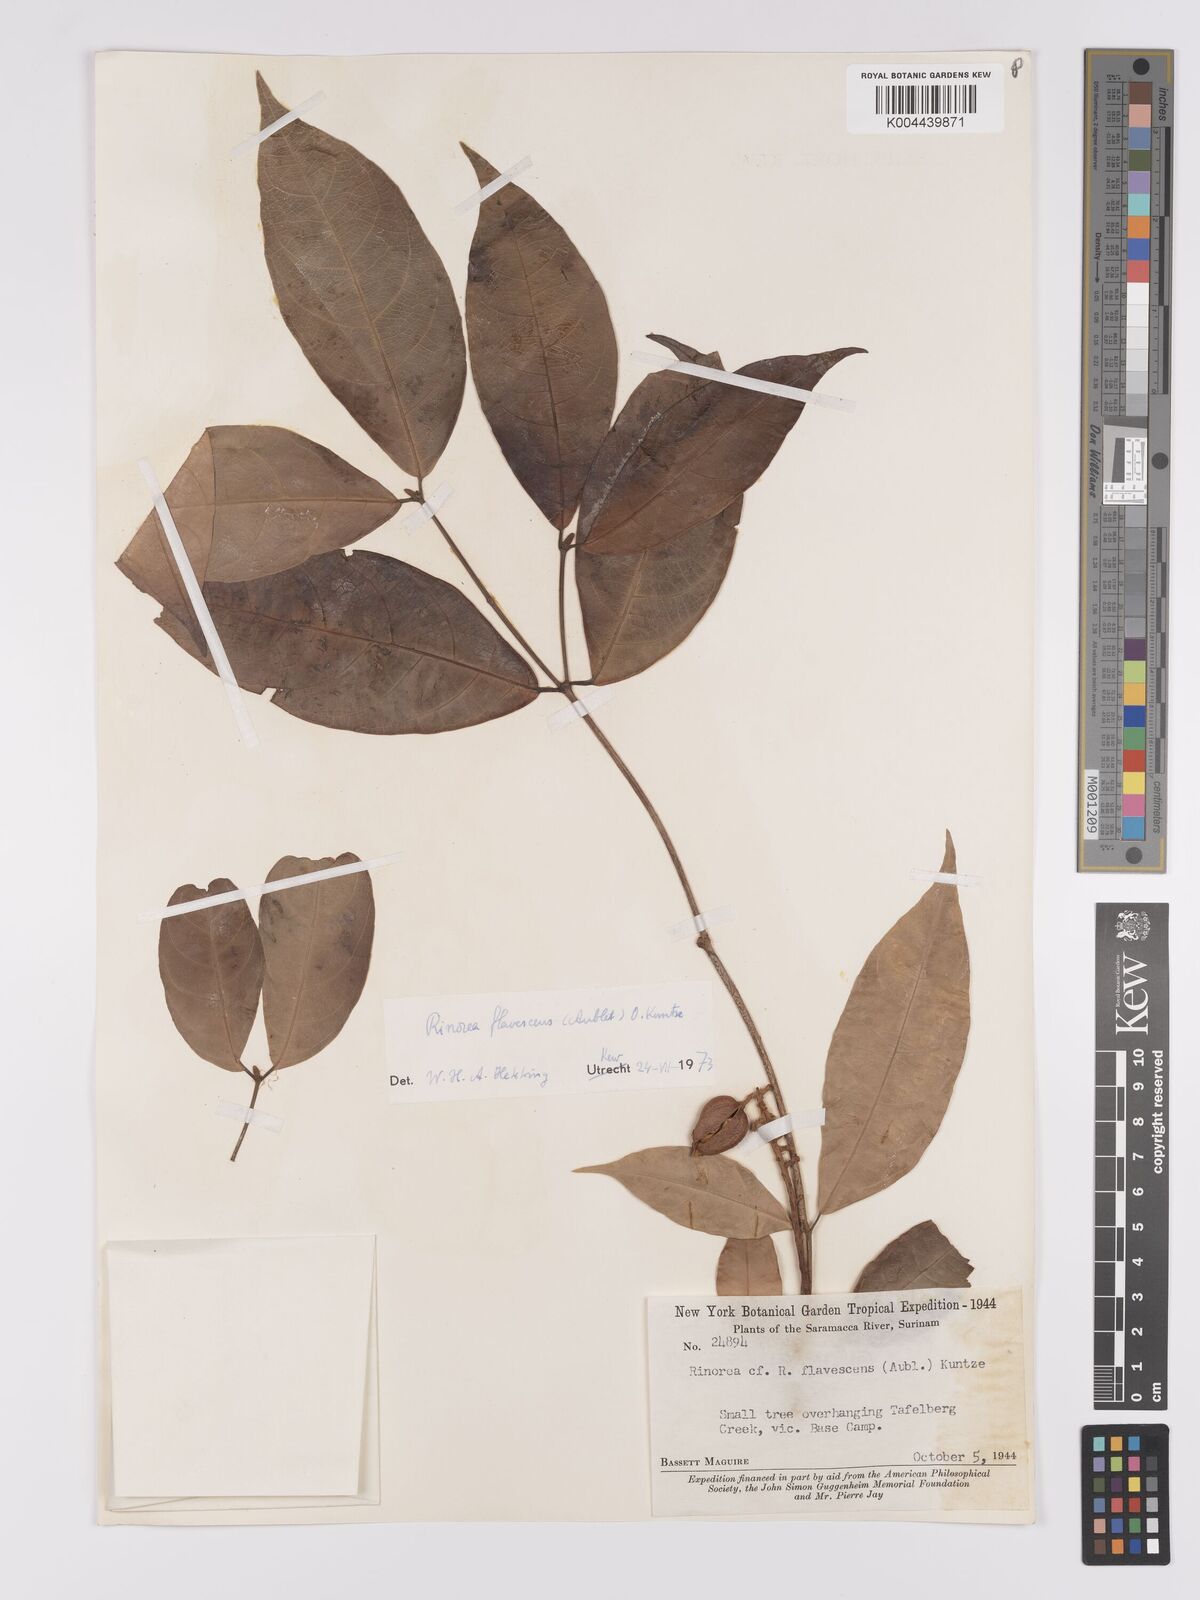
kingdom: Plantae
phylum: Tracheophyta
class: Magnoliopsida
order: Malpighiales
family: Violaceae
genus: Rinorea
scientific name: Rinorea flavescens
